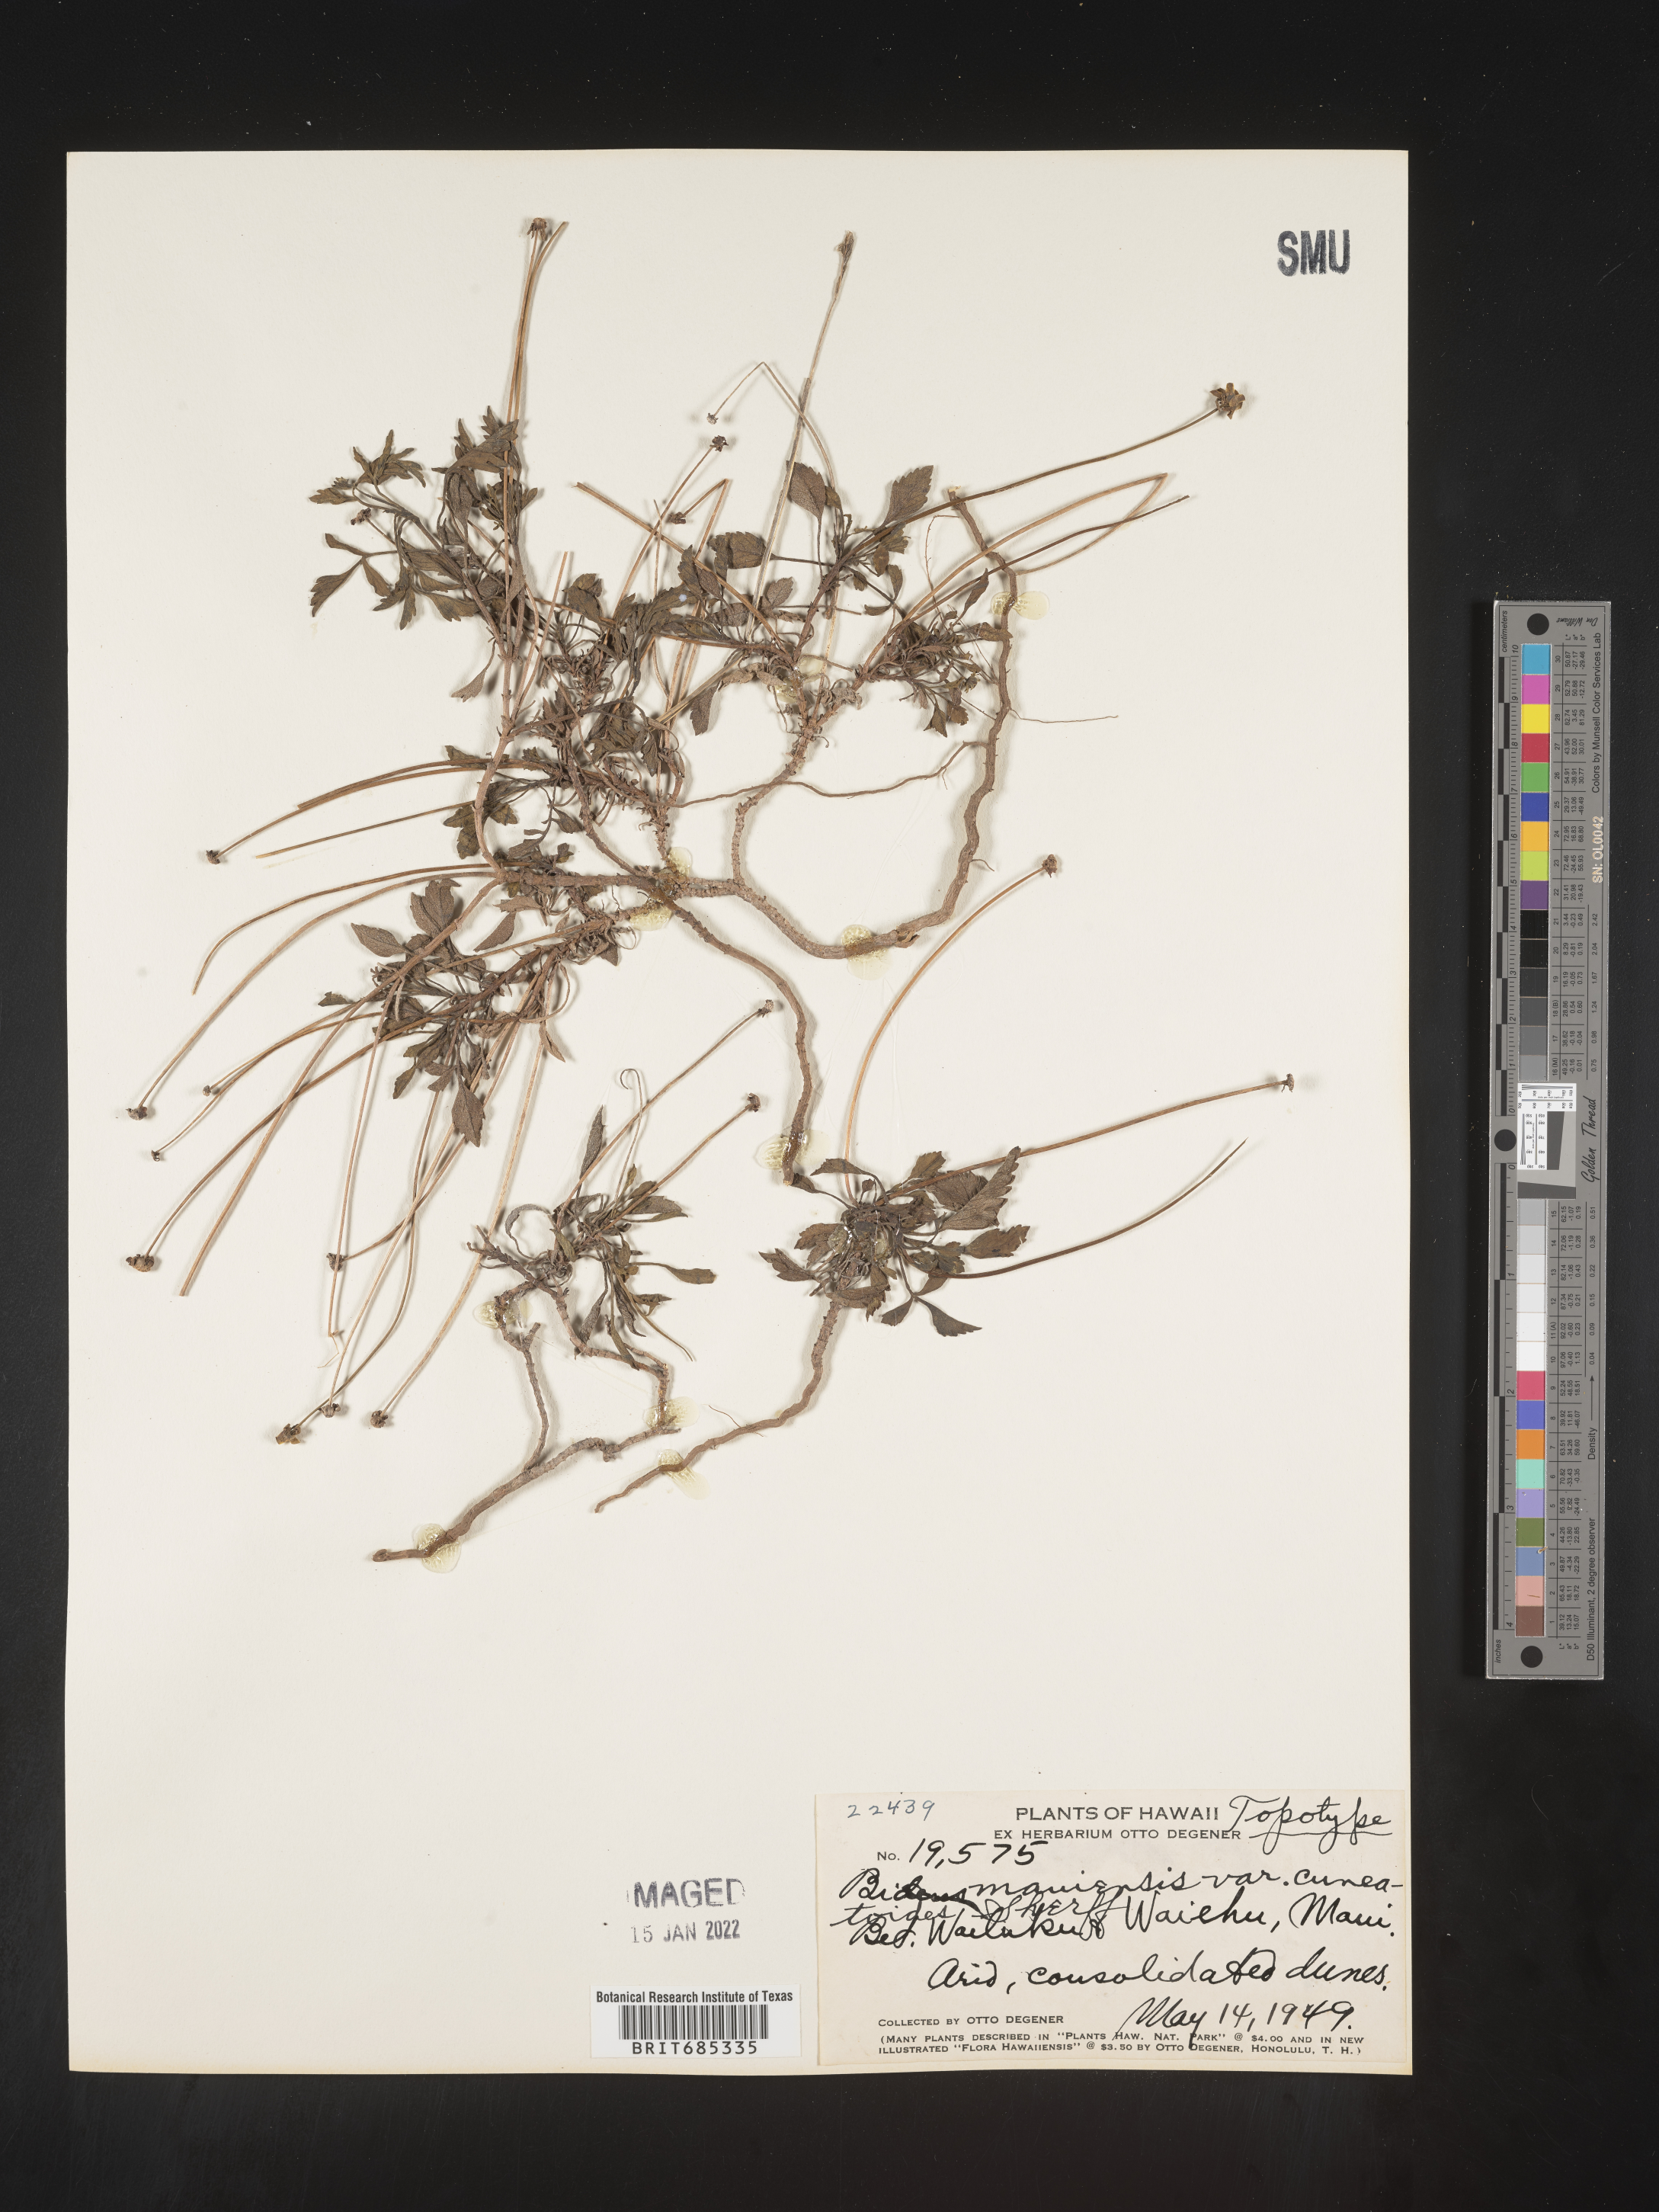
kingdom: Plantae
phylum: Tracheophyta
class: Magnoliopsida
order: Asterales
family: Asteraceae
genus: Bidens
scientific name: Bidens
